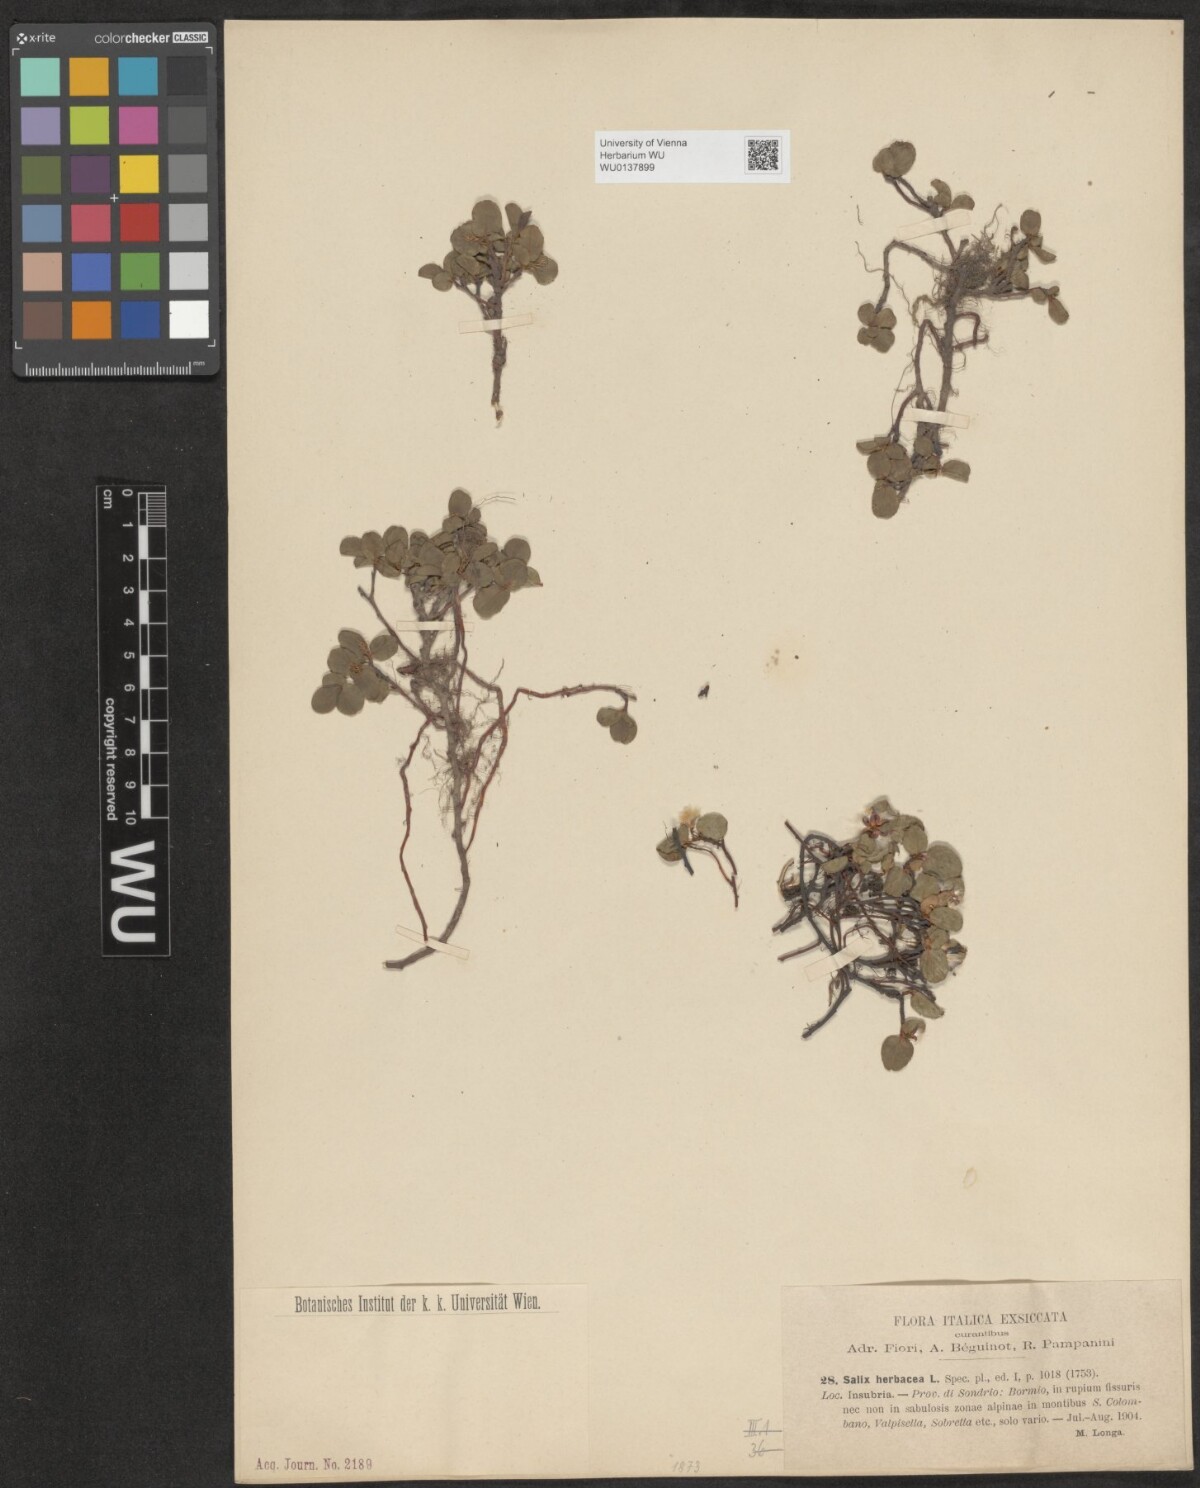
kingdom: Plantae
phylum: Tracheophyta
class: Magnoliopsida
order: Malpighiales
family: Salicaceae
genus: Salix
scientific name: Salix herbacea
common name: Dwarf willow
